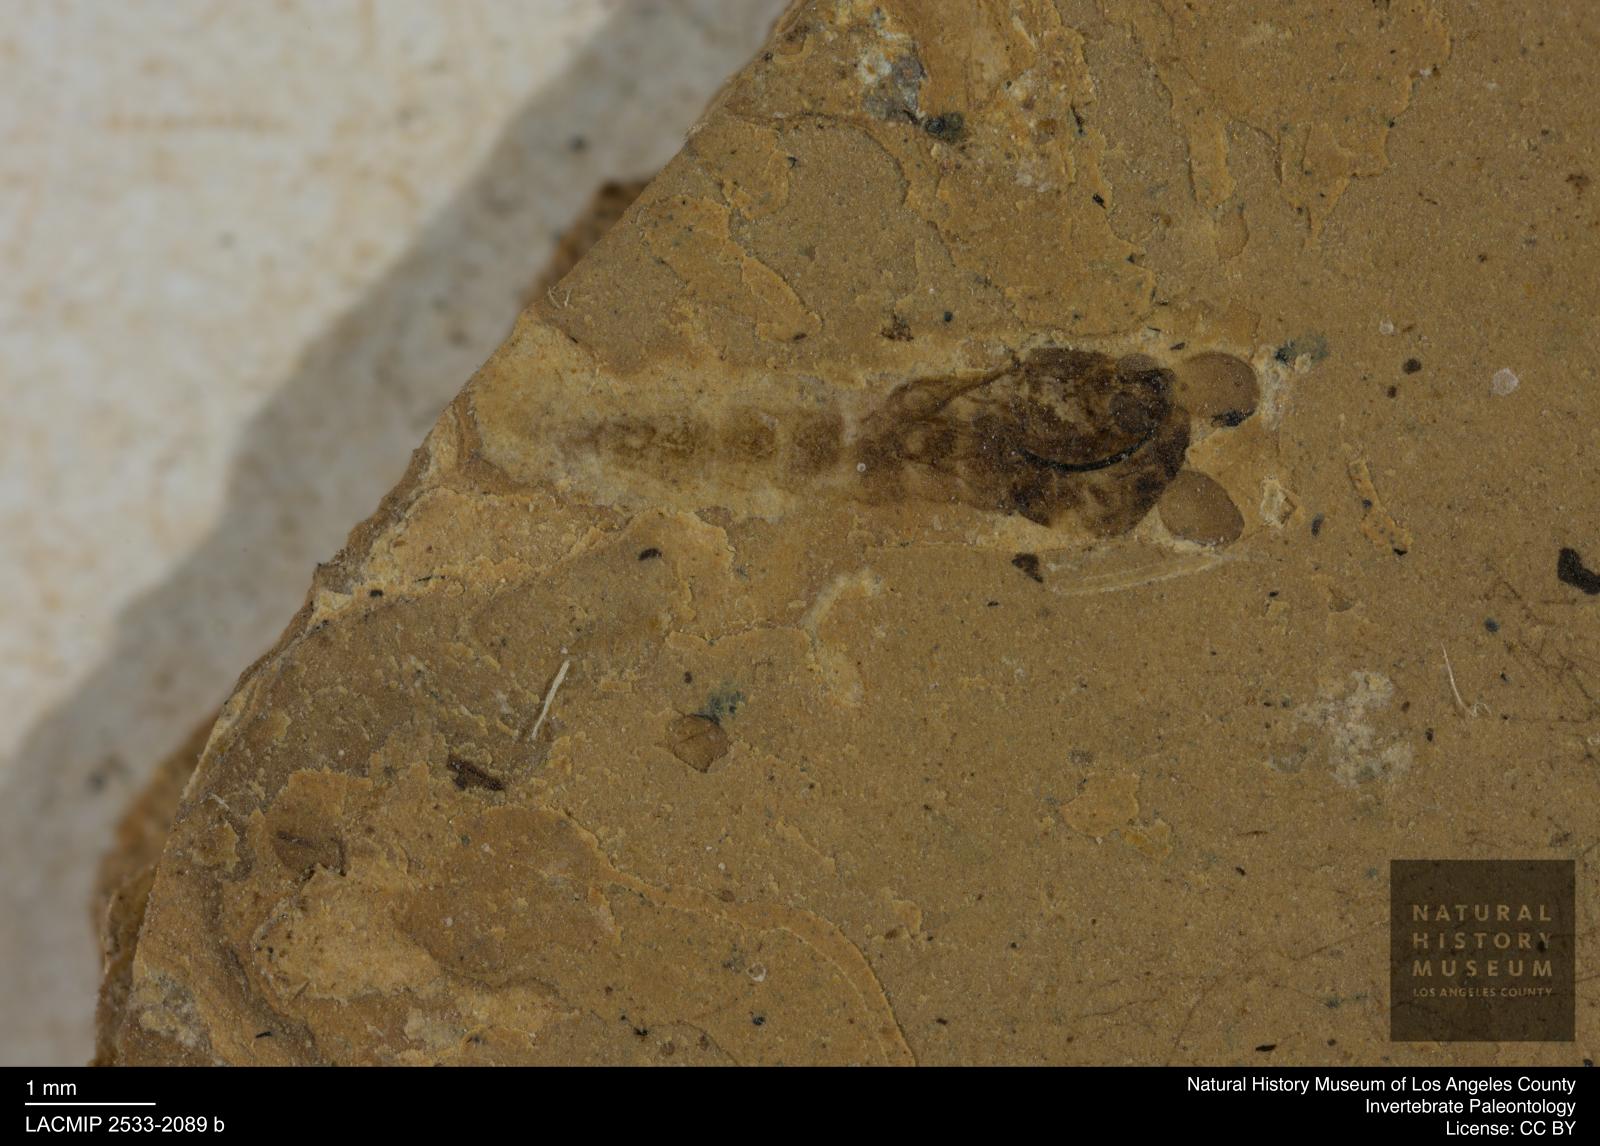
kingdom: Animalia
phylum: Arthropoda
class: Insecta
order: Diptera
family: Chironomidae
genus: Pelopiina
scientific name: Pelopiina
